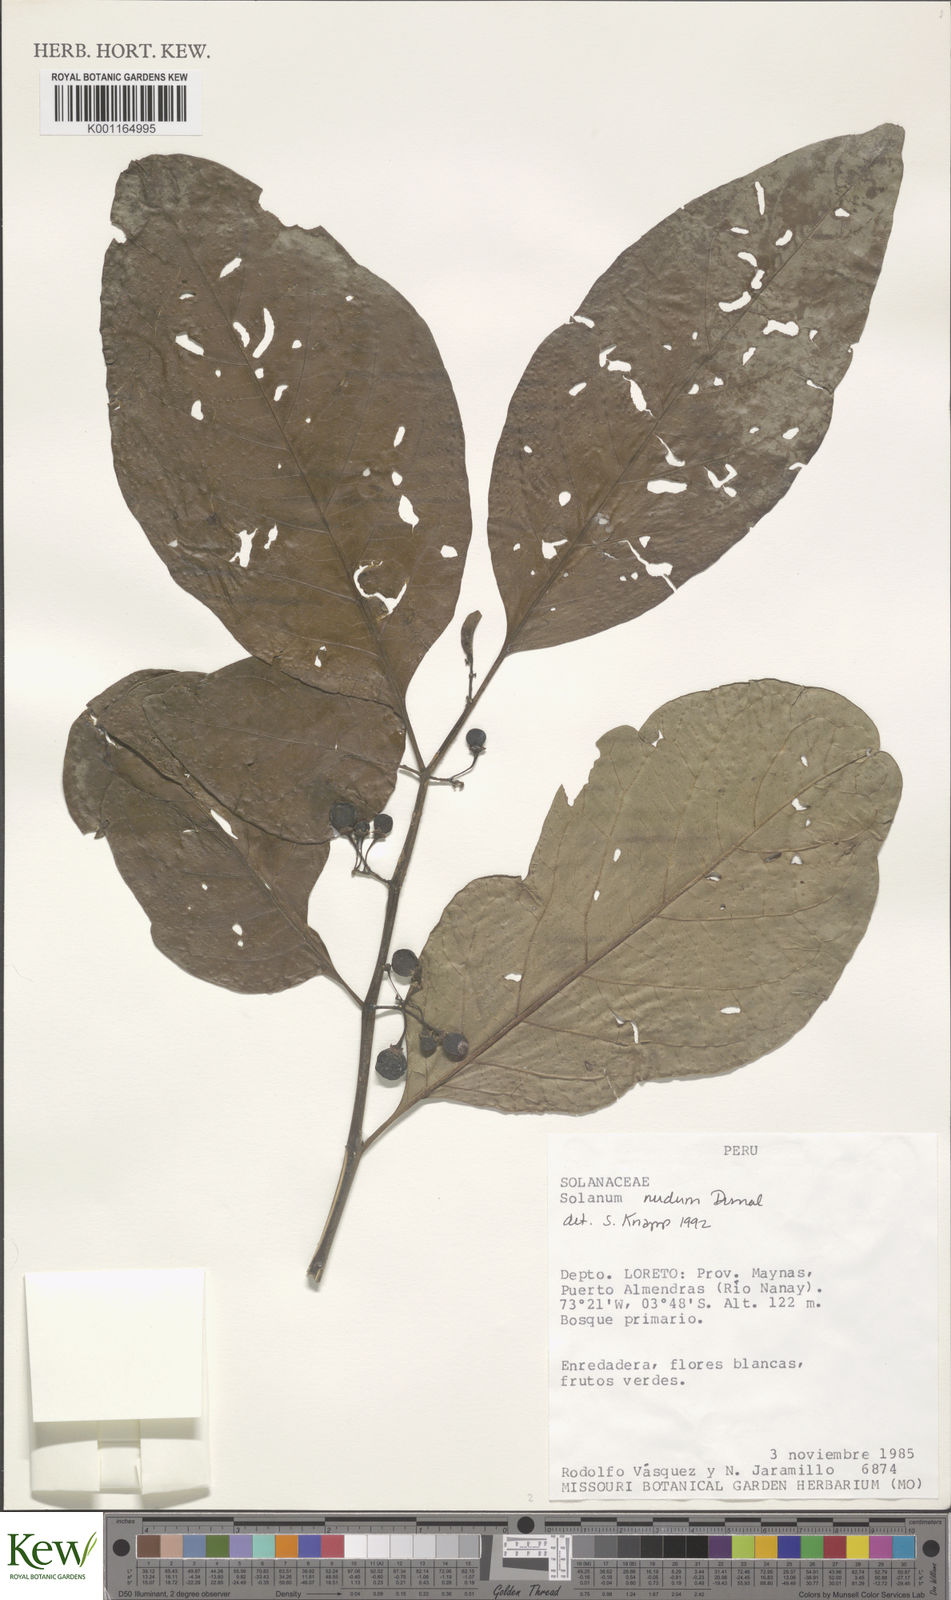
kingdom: Plantae
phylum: Tracheophyta
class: Magnoliopsida
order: Solanales
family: Solanaceae
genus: Solanum
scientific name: Solanum nudum
